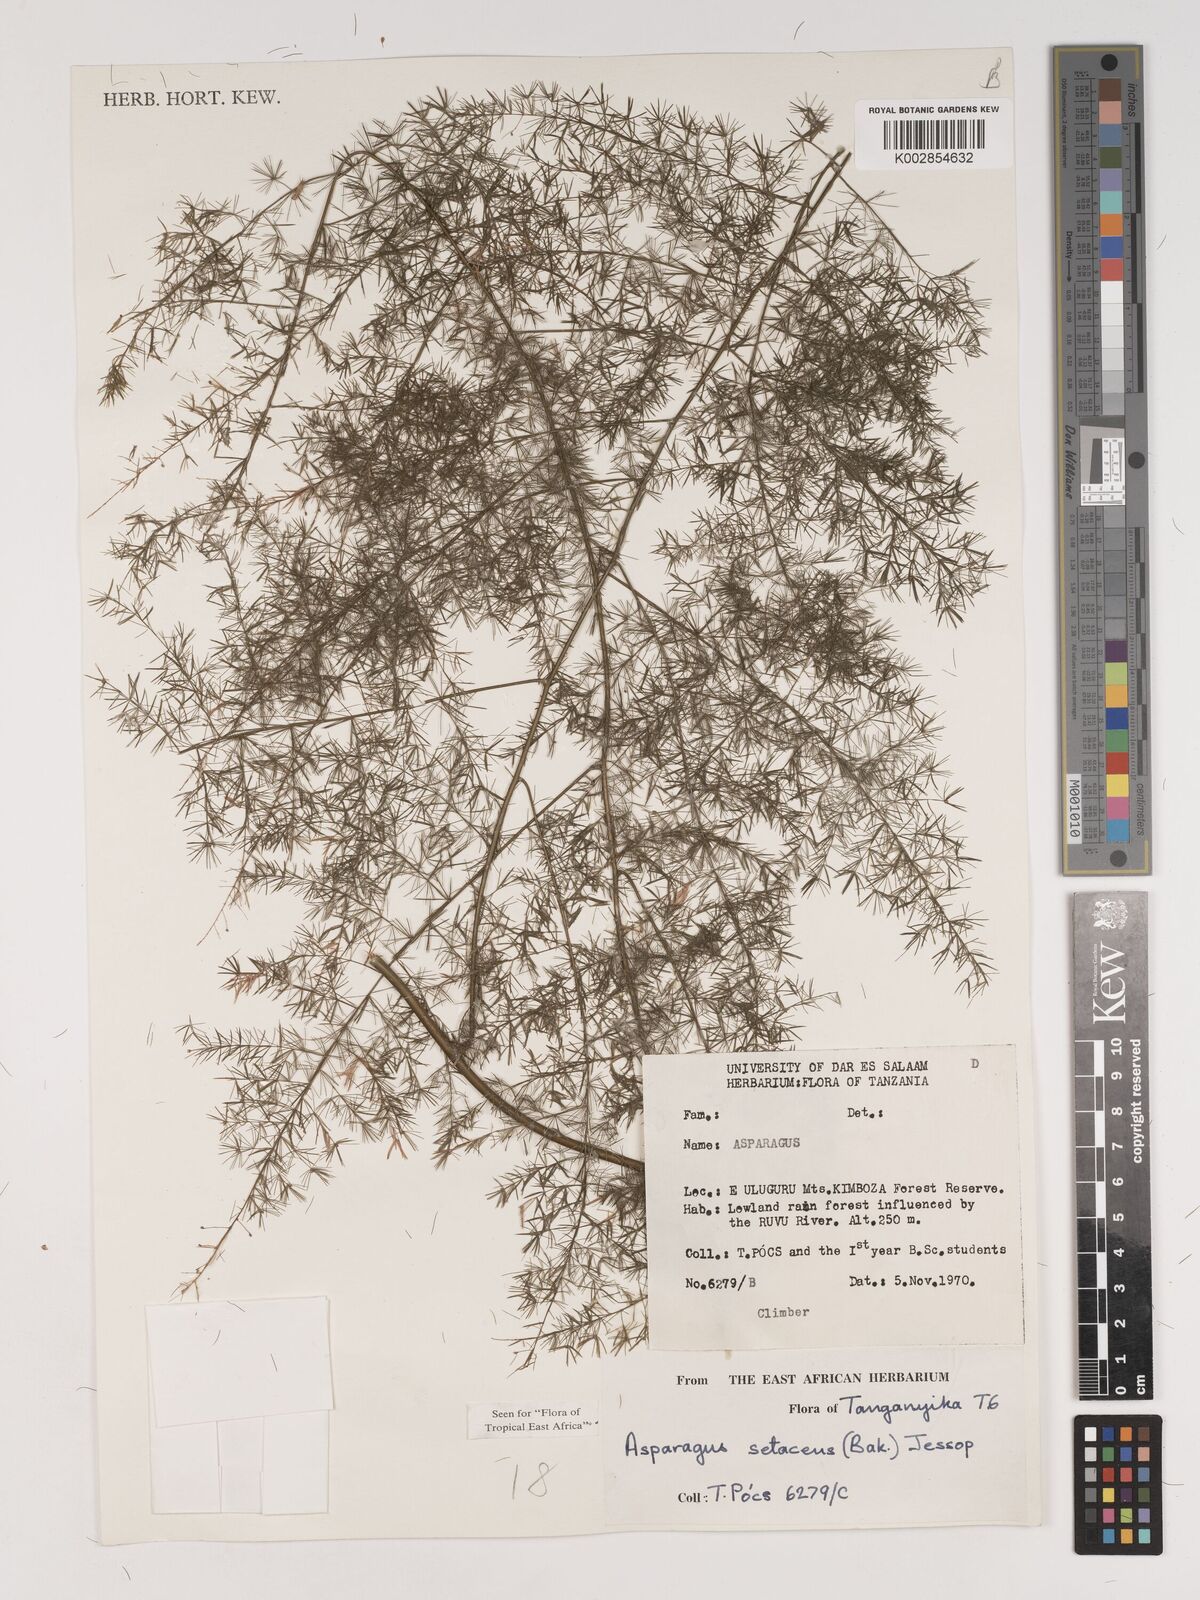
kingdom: Plantae
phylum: Tracheophyta
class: Liliopsida
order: Asparagales
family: Asparagaceae
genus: Asparagus
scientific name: Asparagus setaceus
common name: Common asparagus fern
